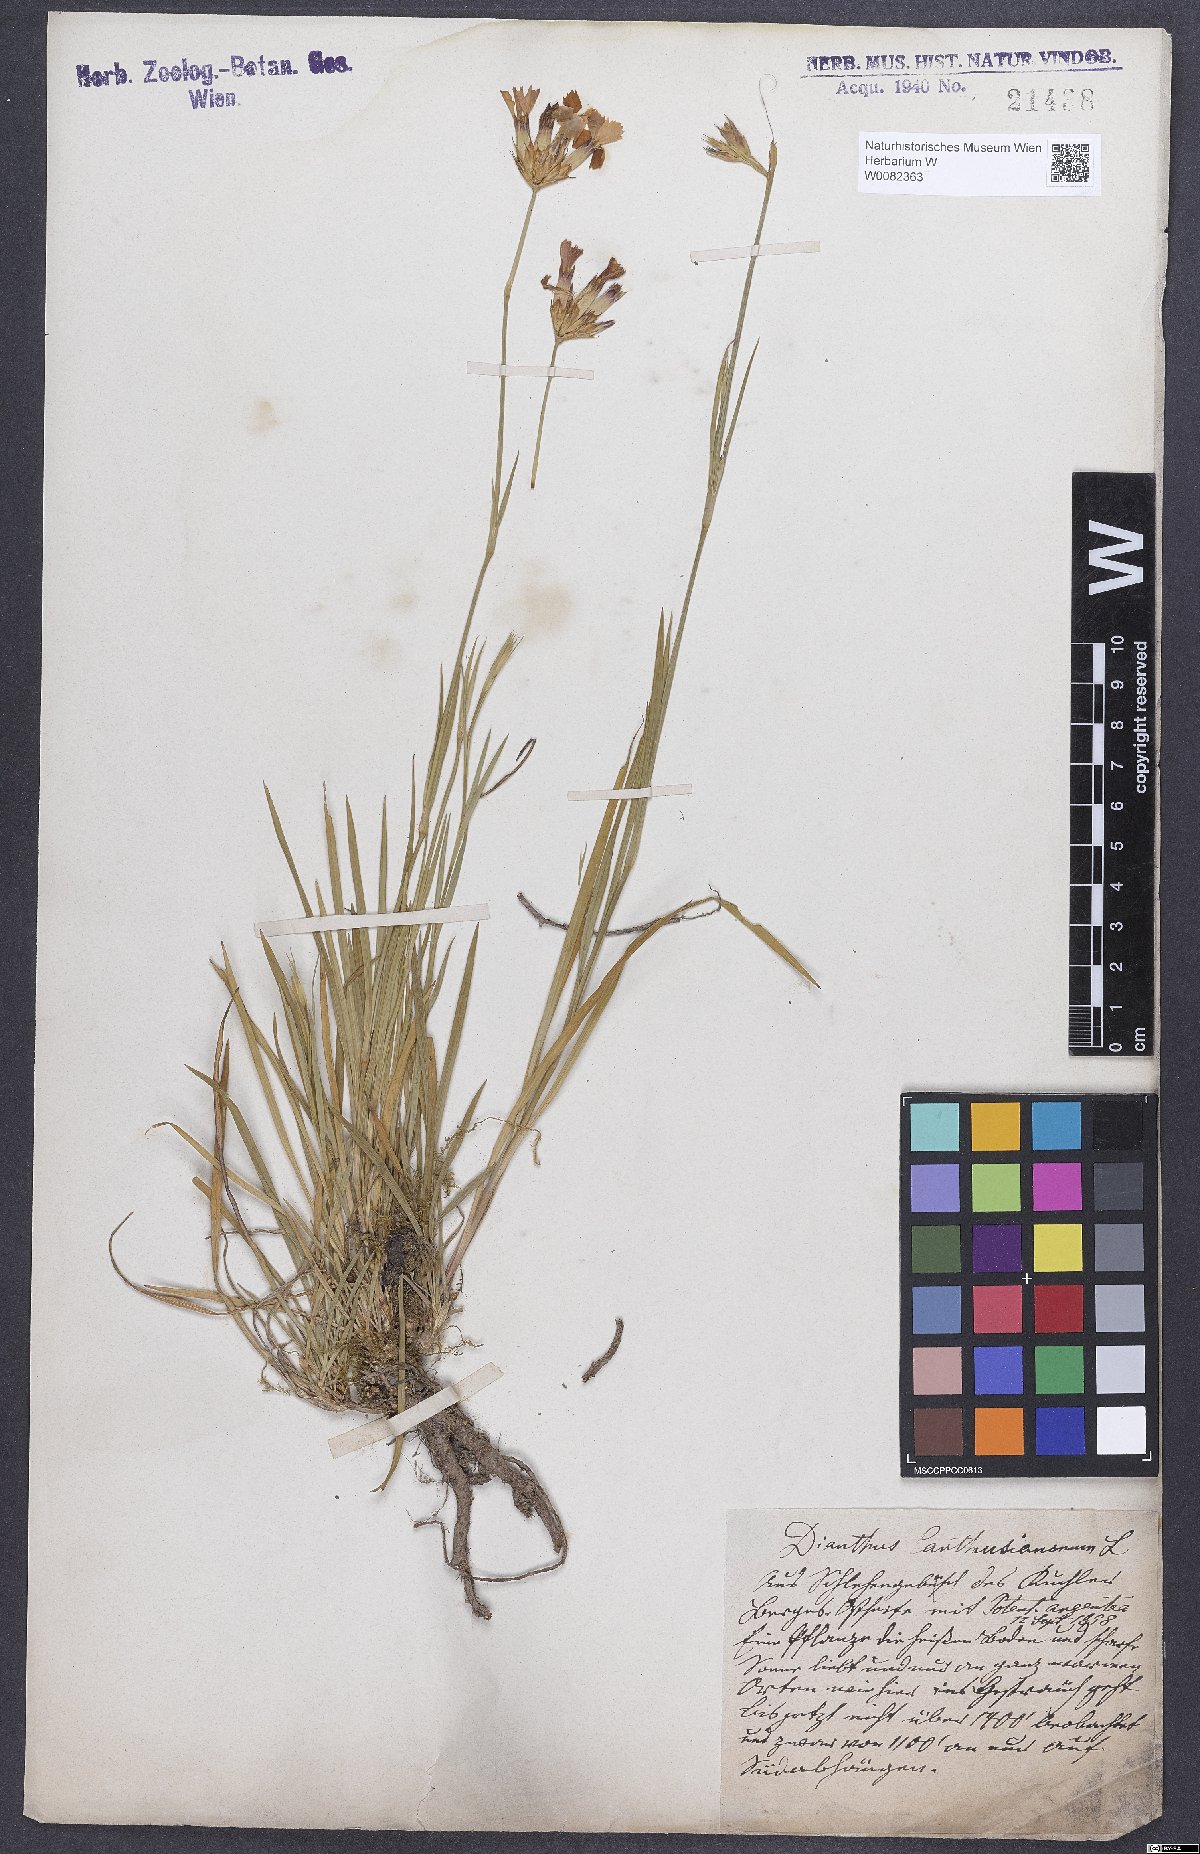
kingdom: Plantae
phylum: Tracheophyta
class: Magnoliopsida
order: Caryophyllales
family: Caryophyllaceae
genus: Dianthus
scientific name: Dianthus carthusianorum
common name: Carthusian pink
